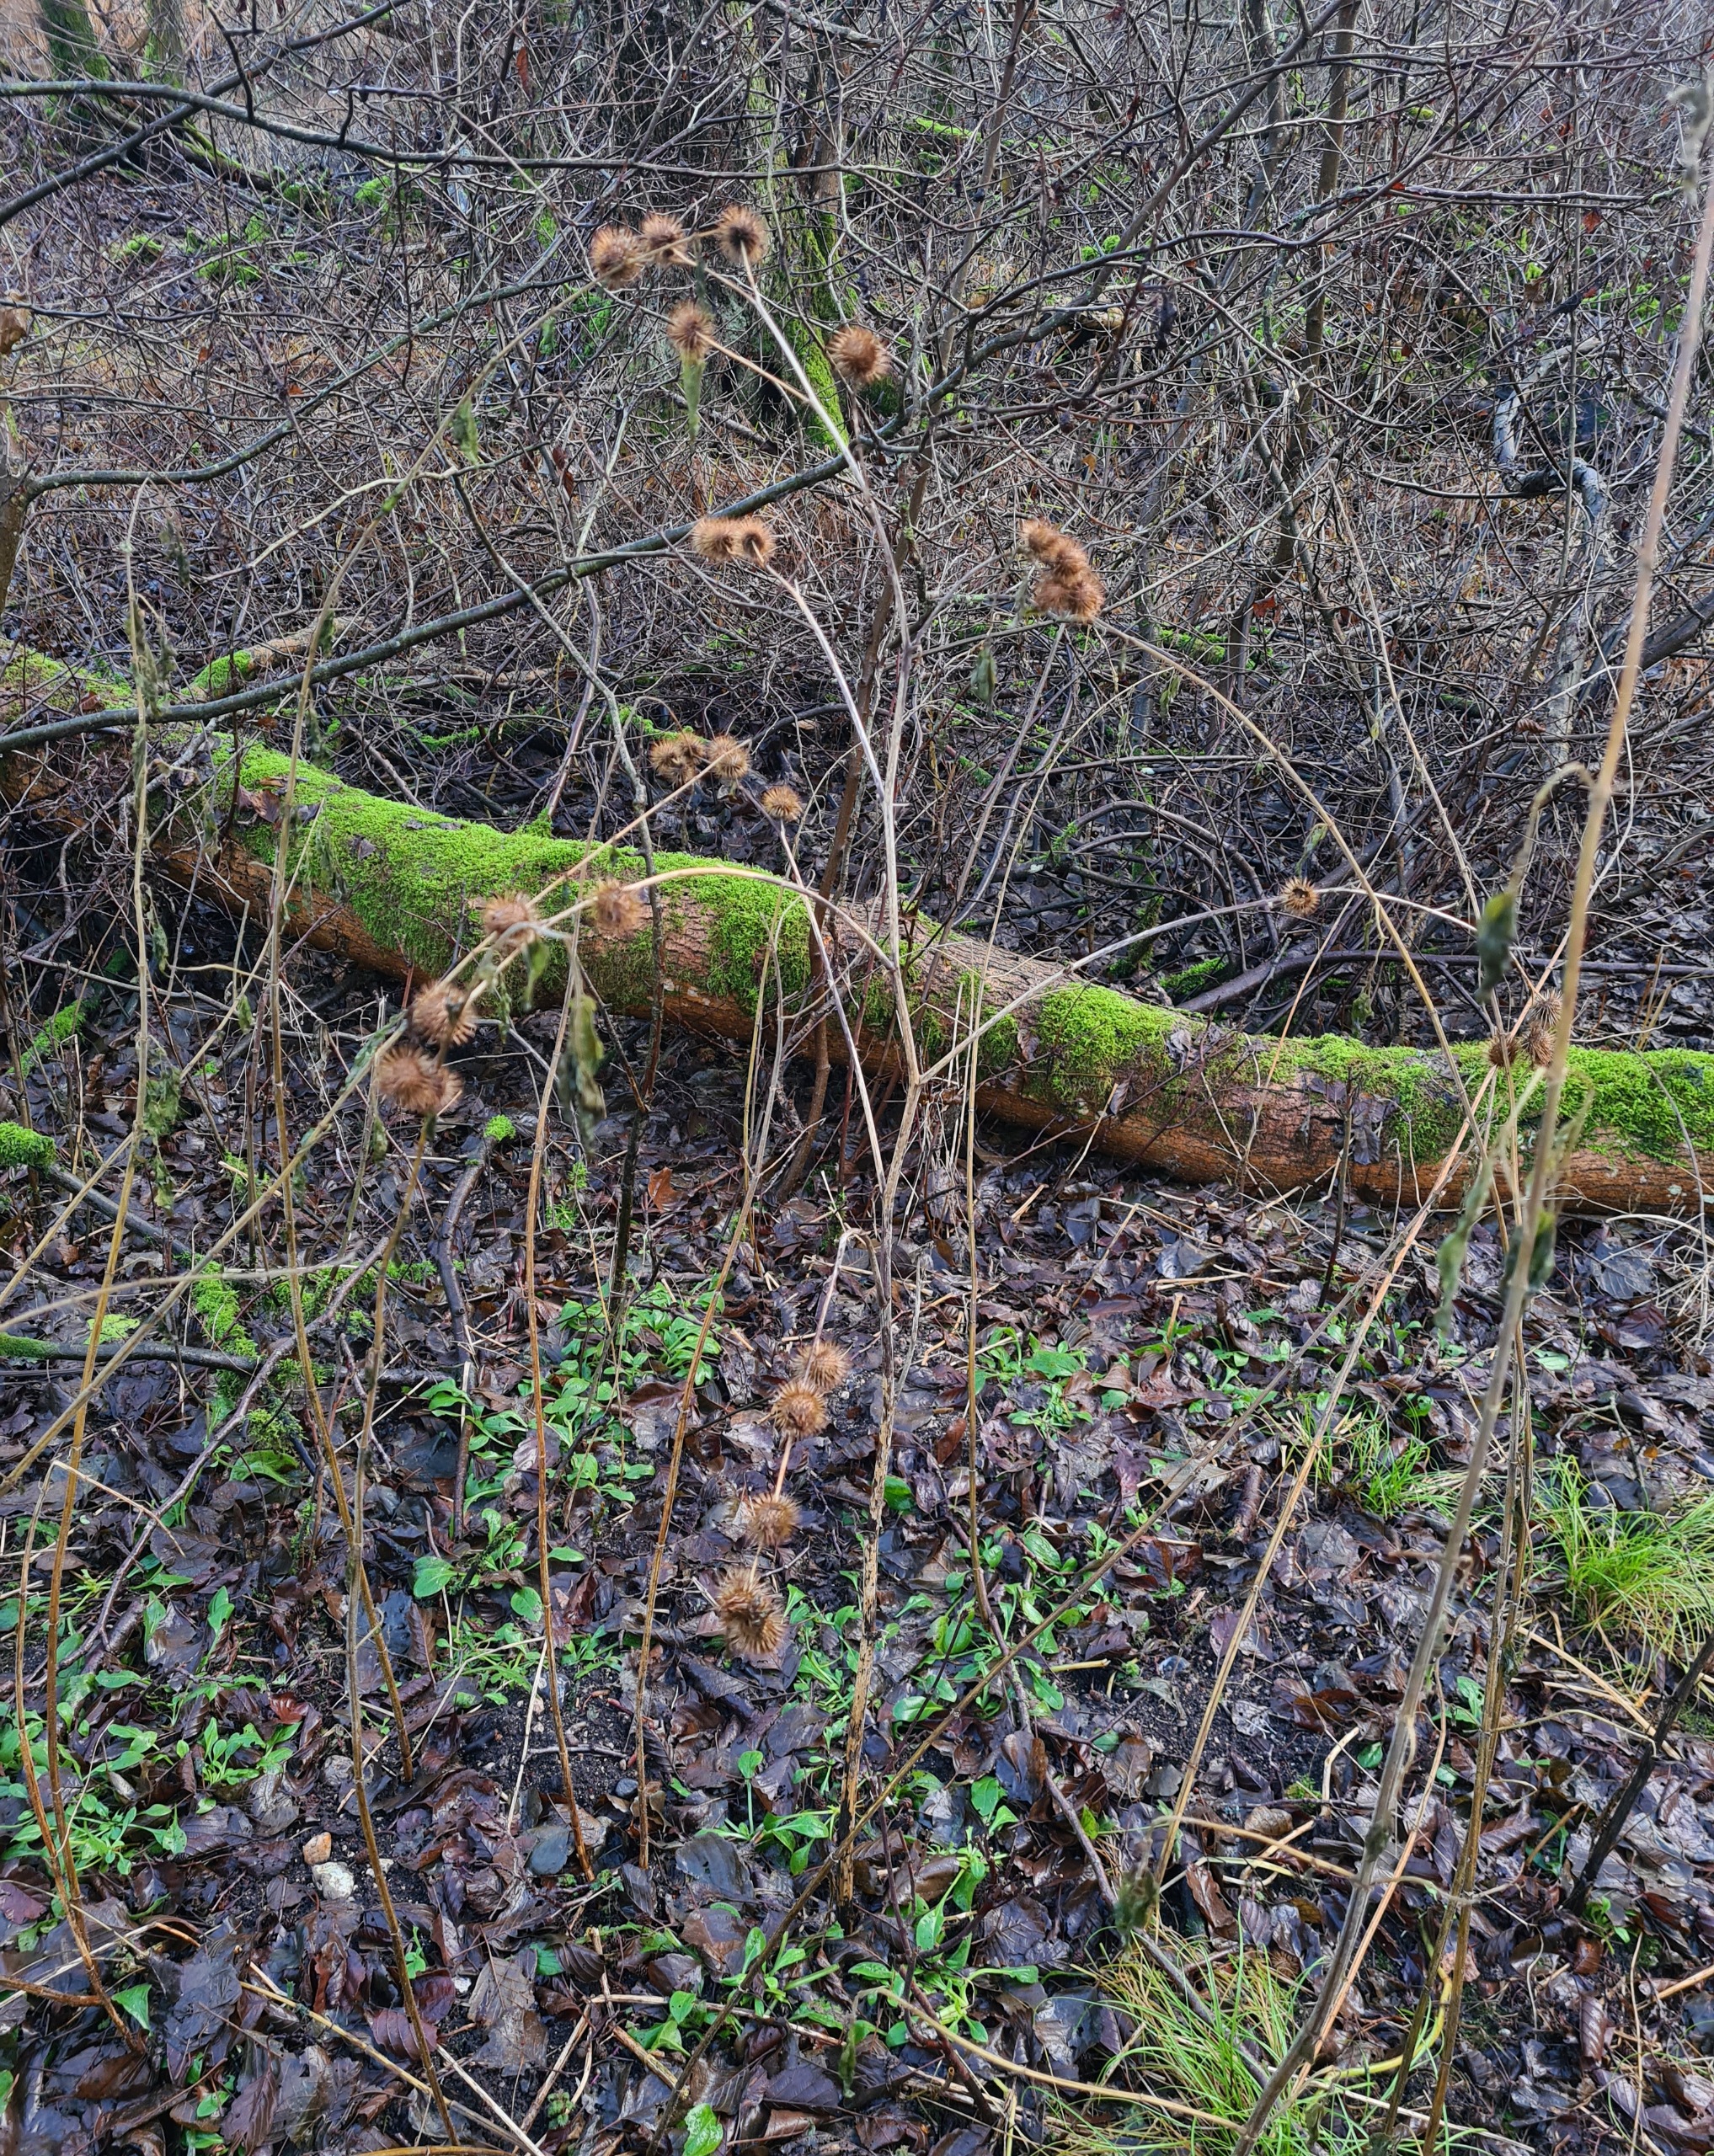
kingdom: Plantae
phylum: Tracheophyta
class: Magnoliopsida
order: Asterales
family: Asteraceae
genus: Arctium
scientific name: Arctium nemorosum
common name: Skov-burre
